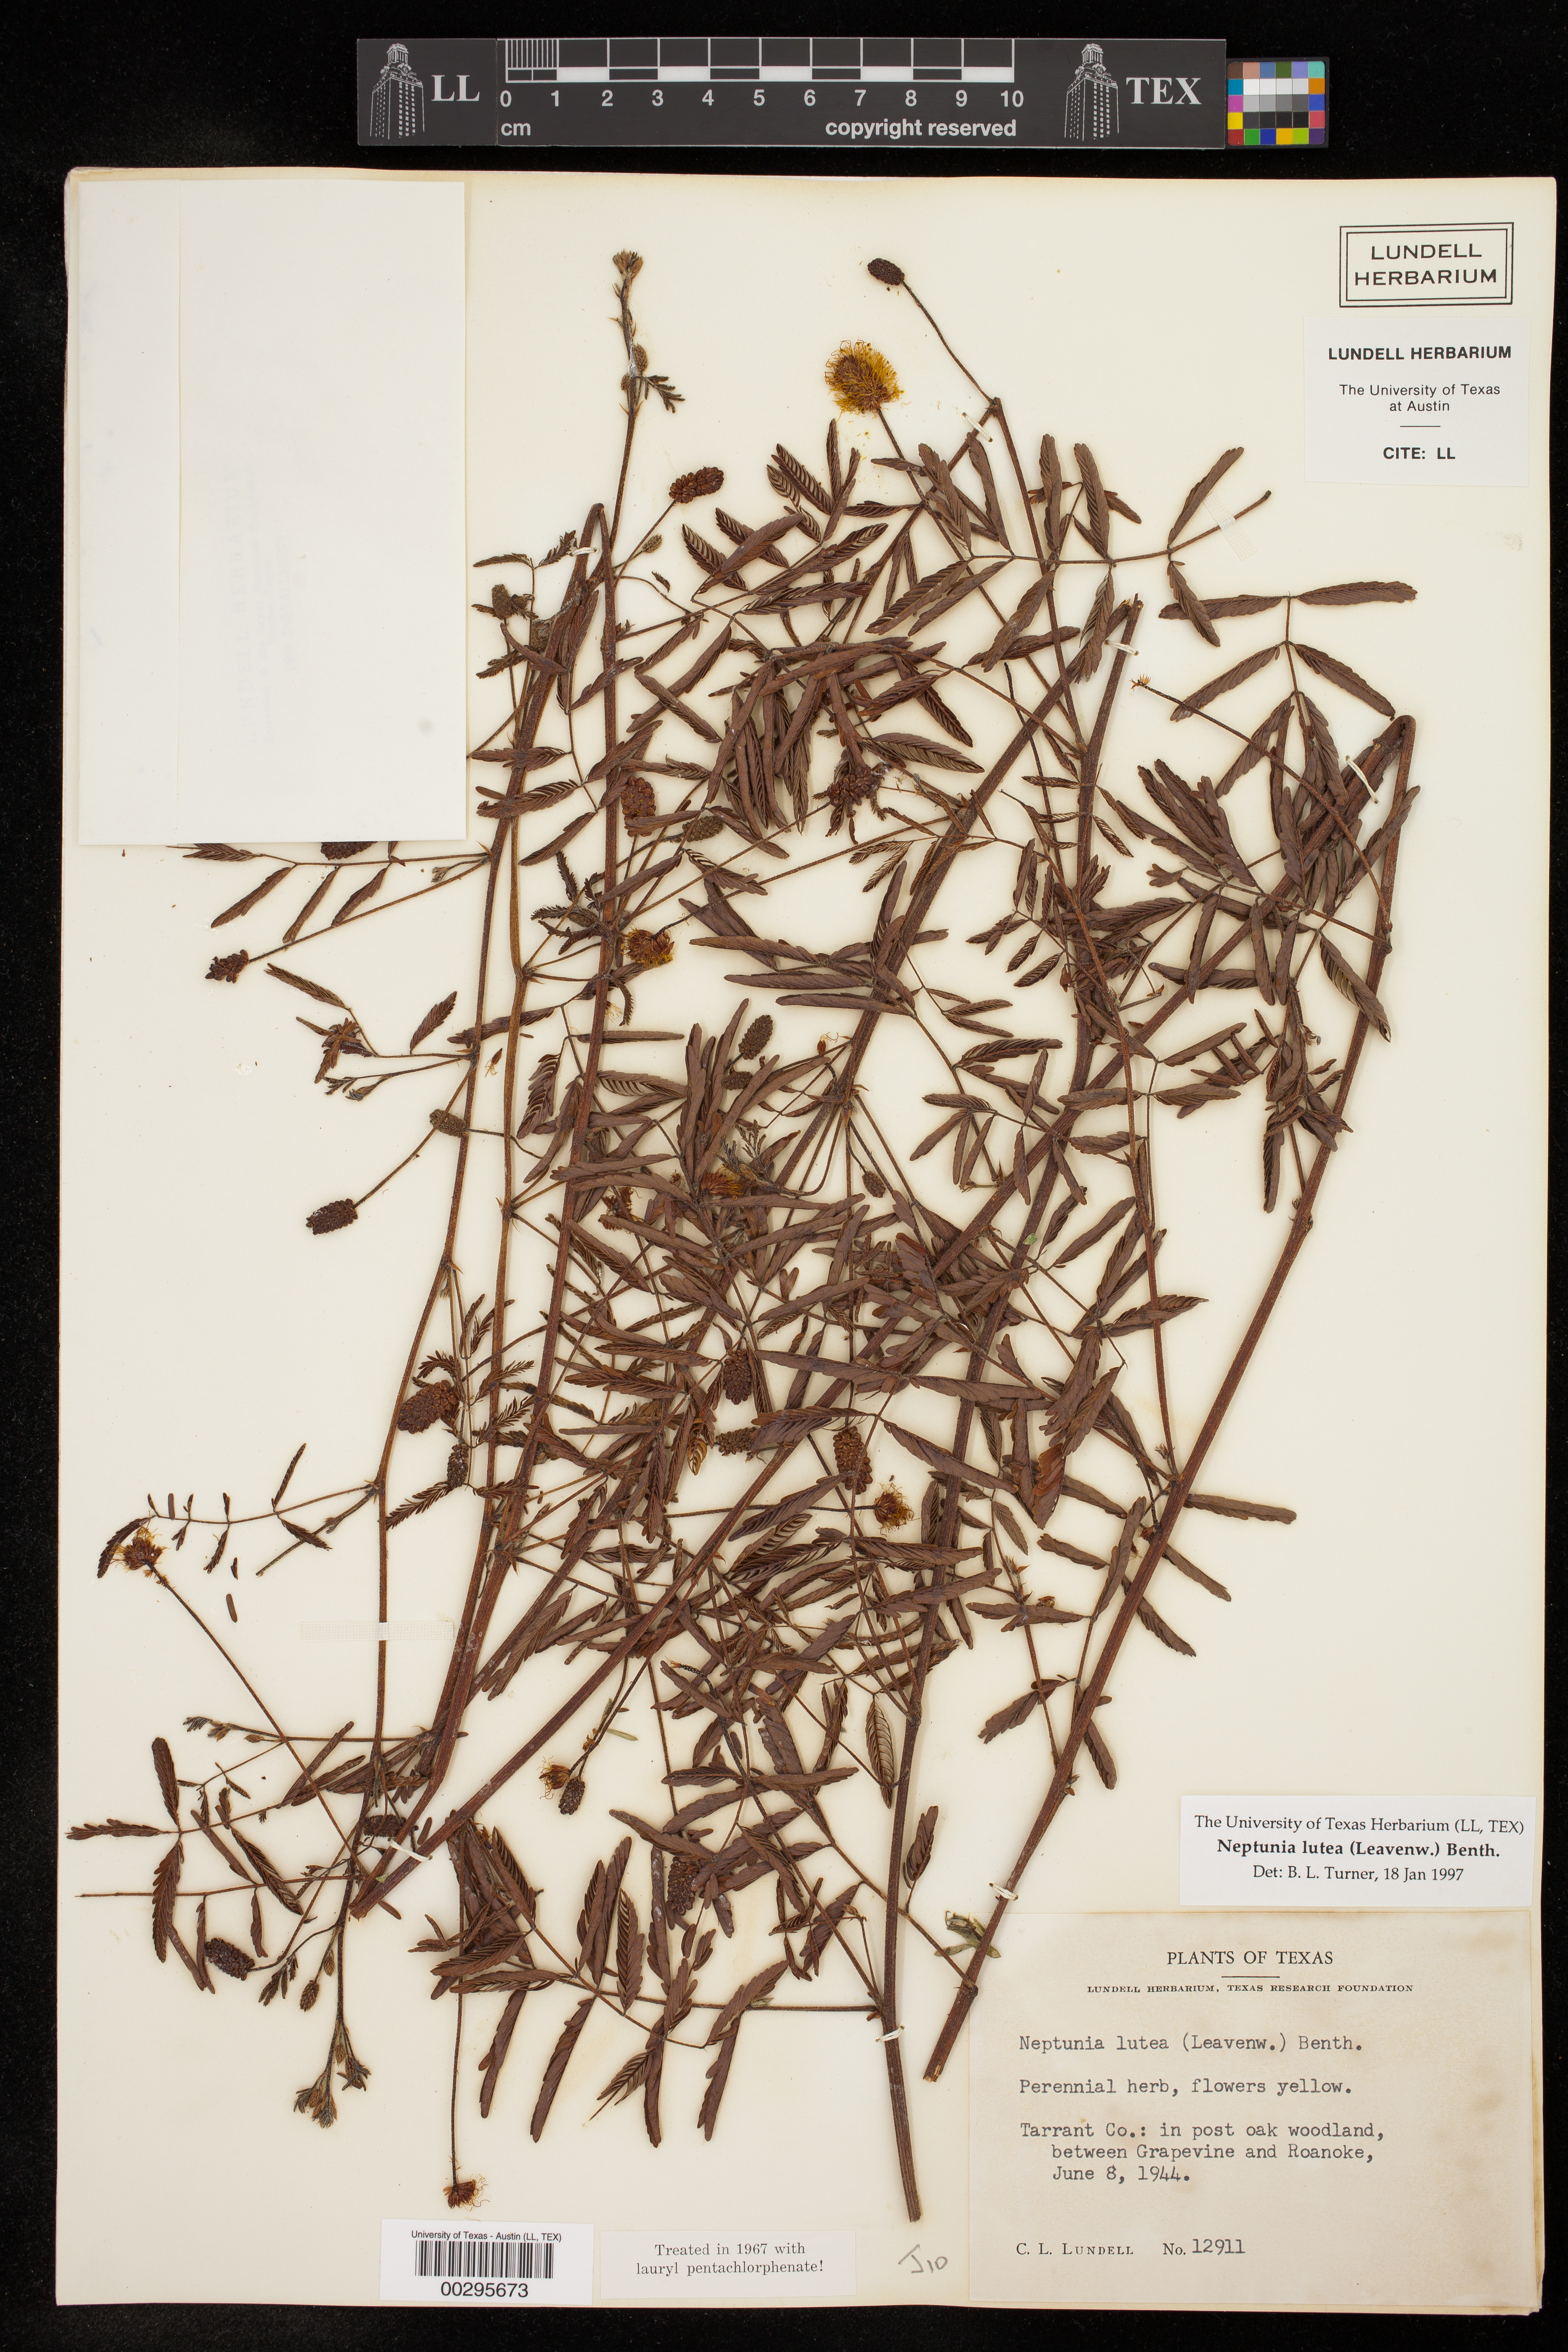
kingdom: Plantae
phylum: Tracheophyta
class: Magnoliopsida
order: Fabales
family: Fabaceae
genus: Neptunia
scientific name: Neptunia lutea
